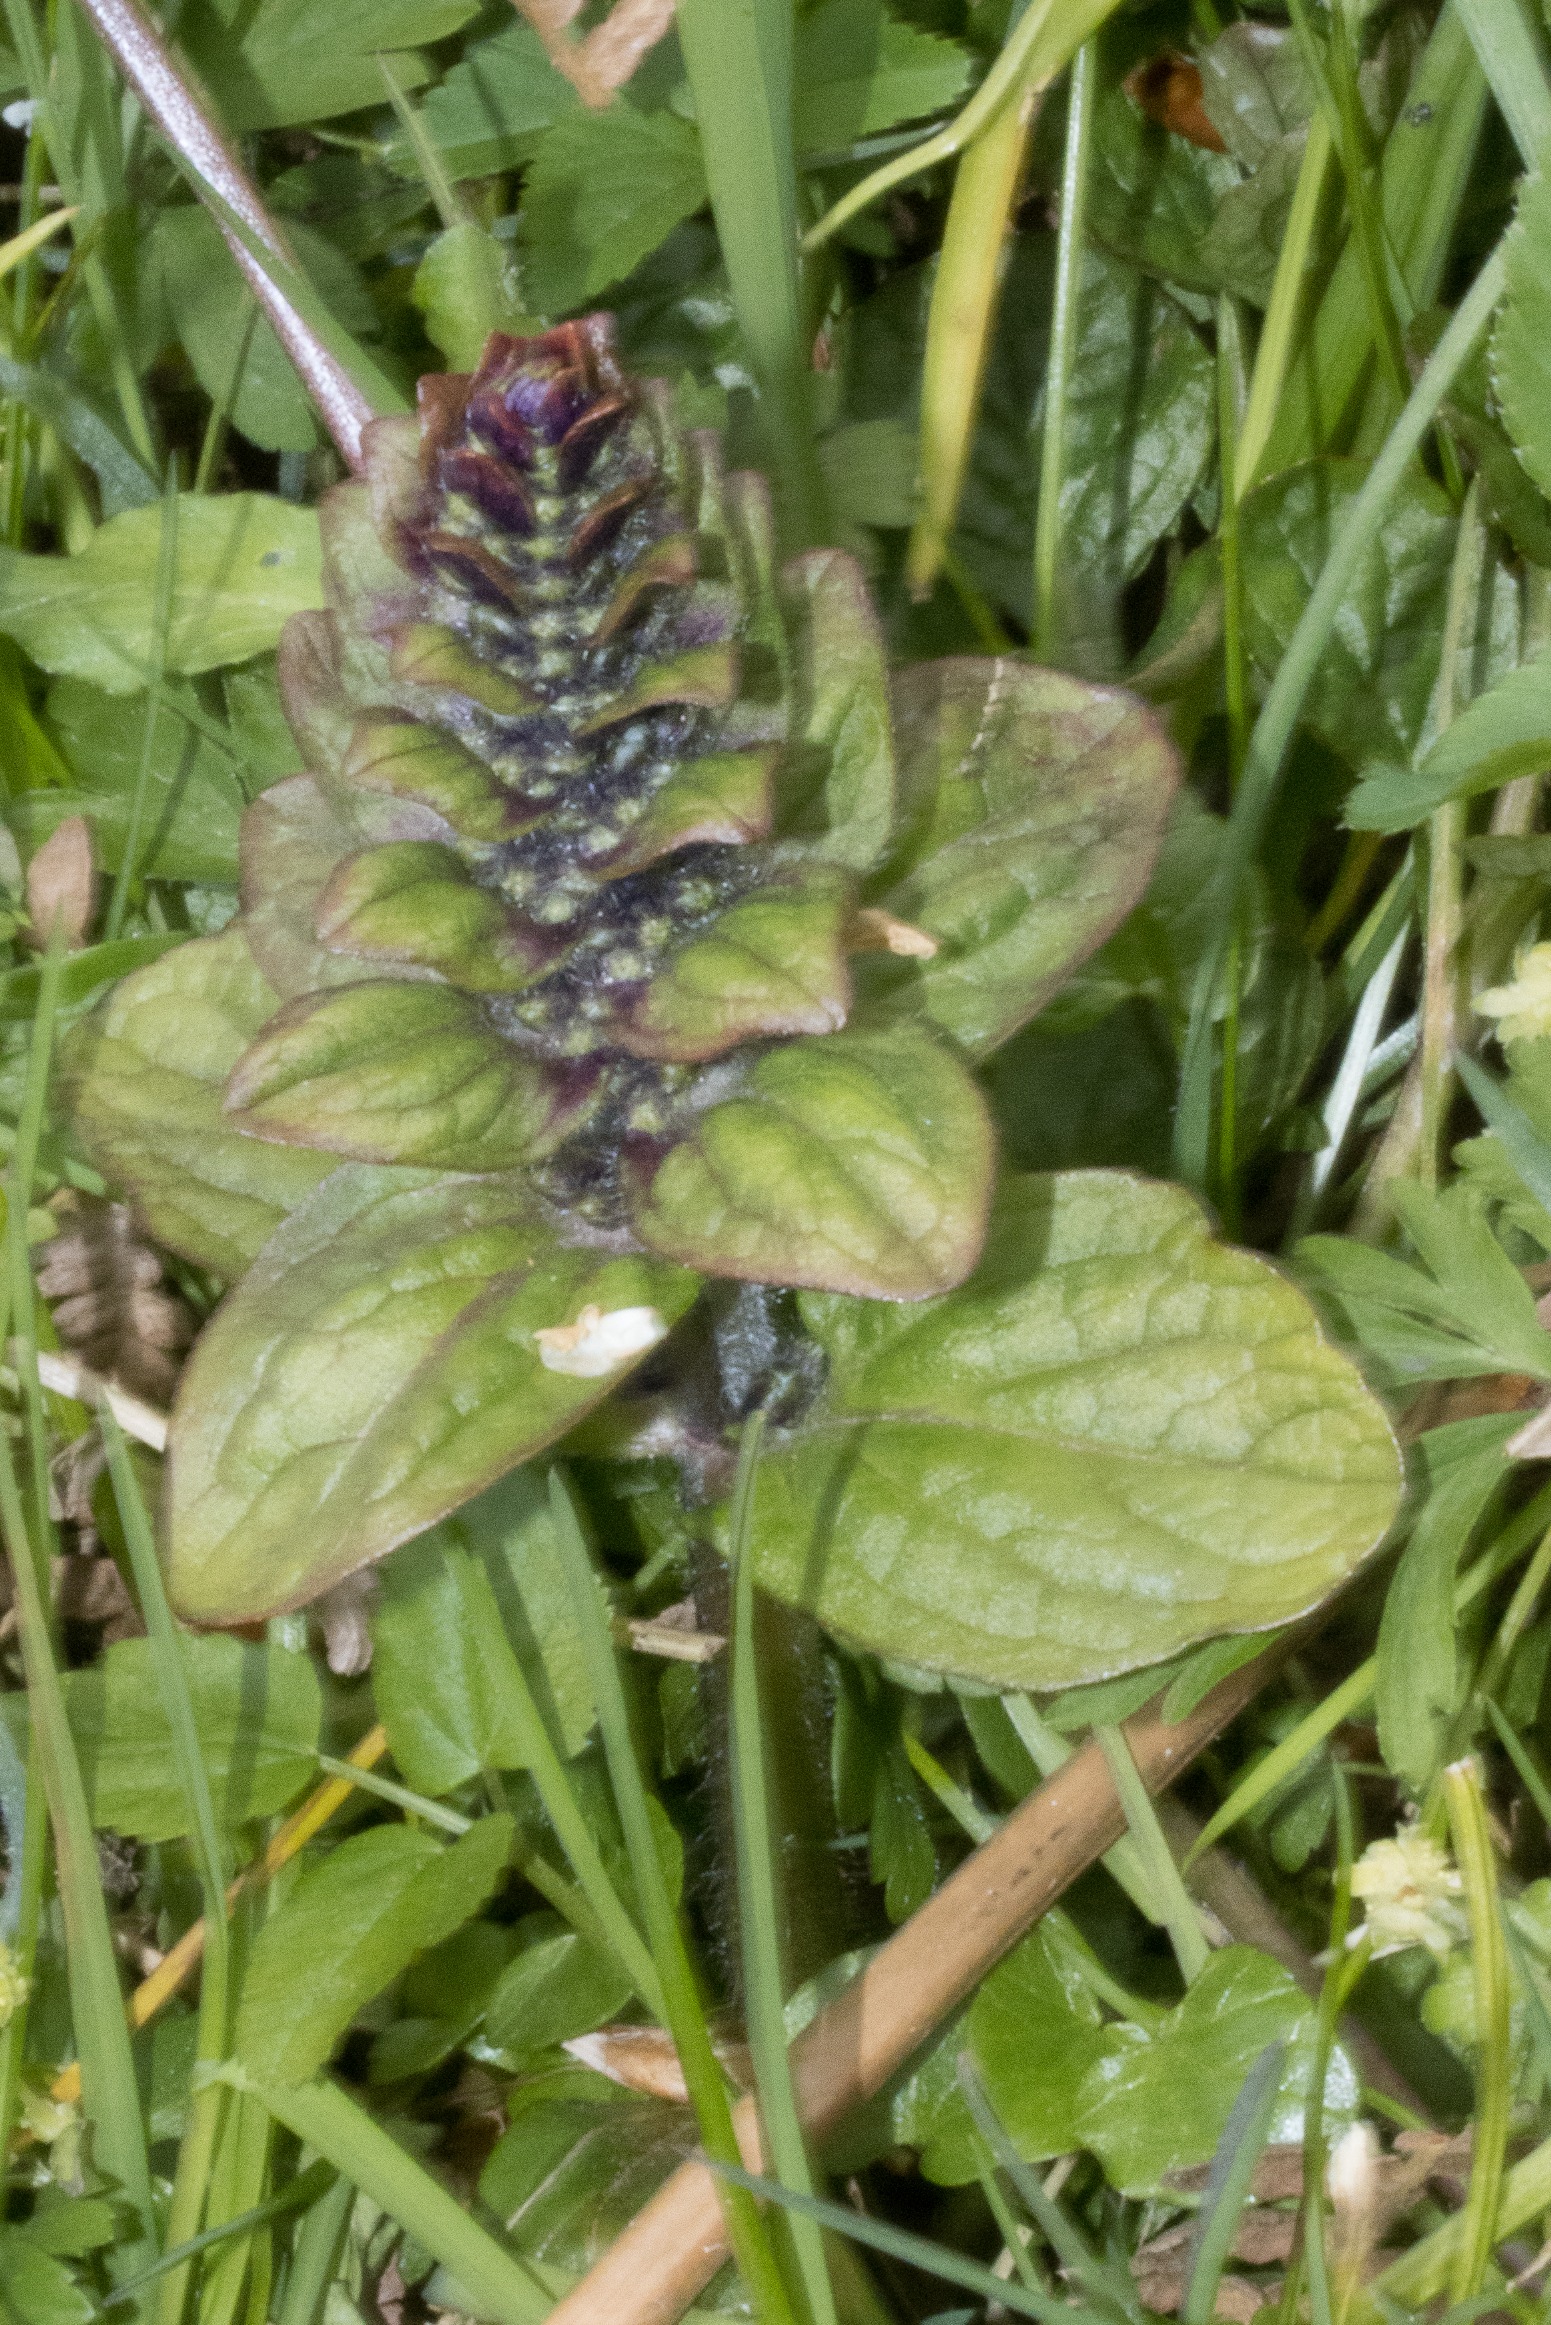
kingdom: Plantae
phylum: Tracheophyta
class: Magnoliopsida
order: Lamiales
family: Lamiaceae
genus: Ajuga
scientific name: Ajuga reptans
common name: Krybende læbeløs
